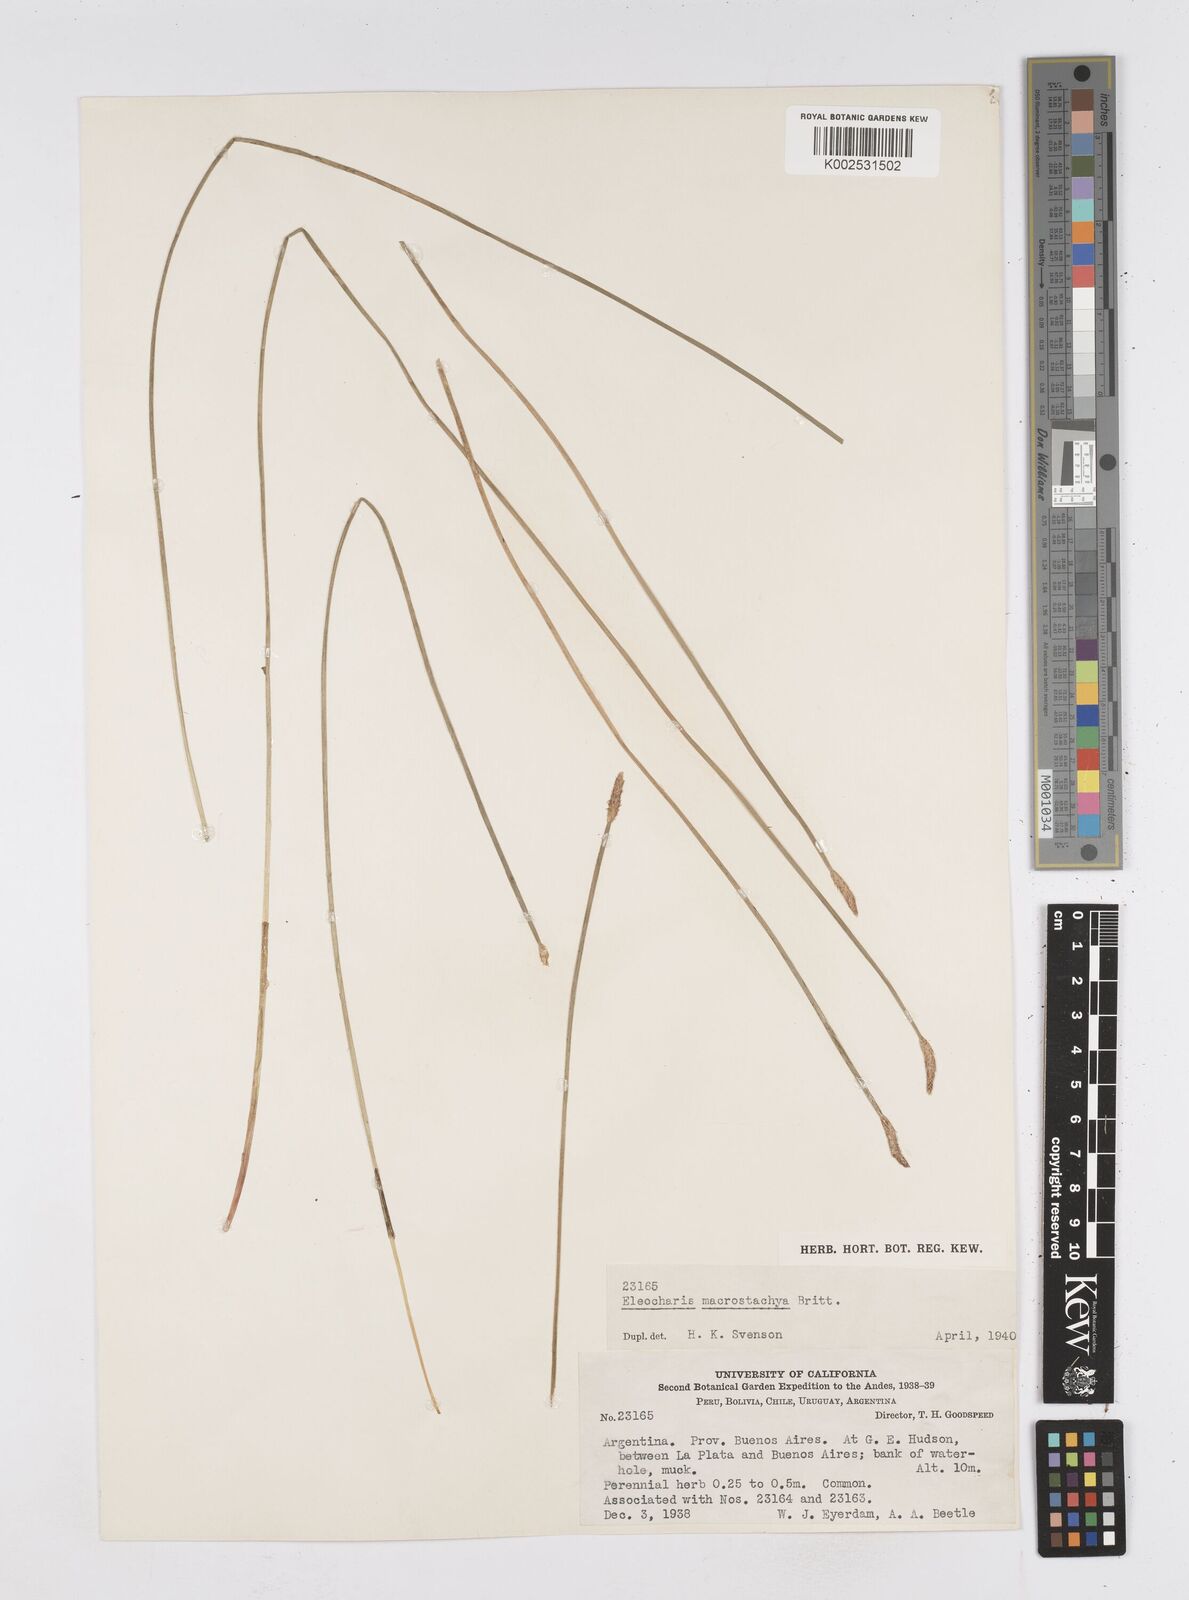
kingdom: Plantae
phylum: Tracheophyta
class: Liliopsida
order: Poales
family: Cyperaceae
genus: Eleocharis
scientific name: Eleocharis macrostachya
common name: Pale spikerush
